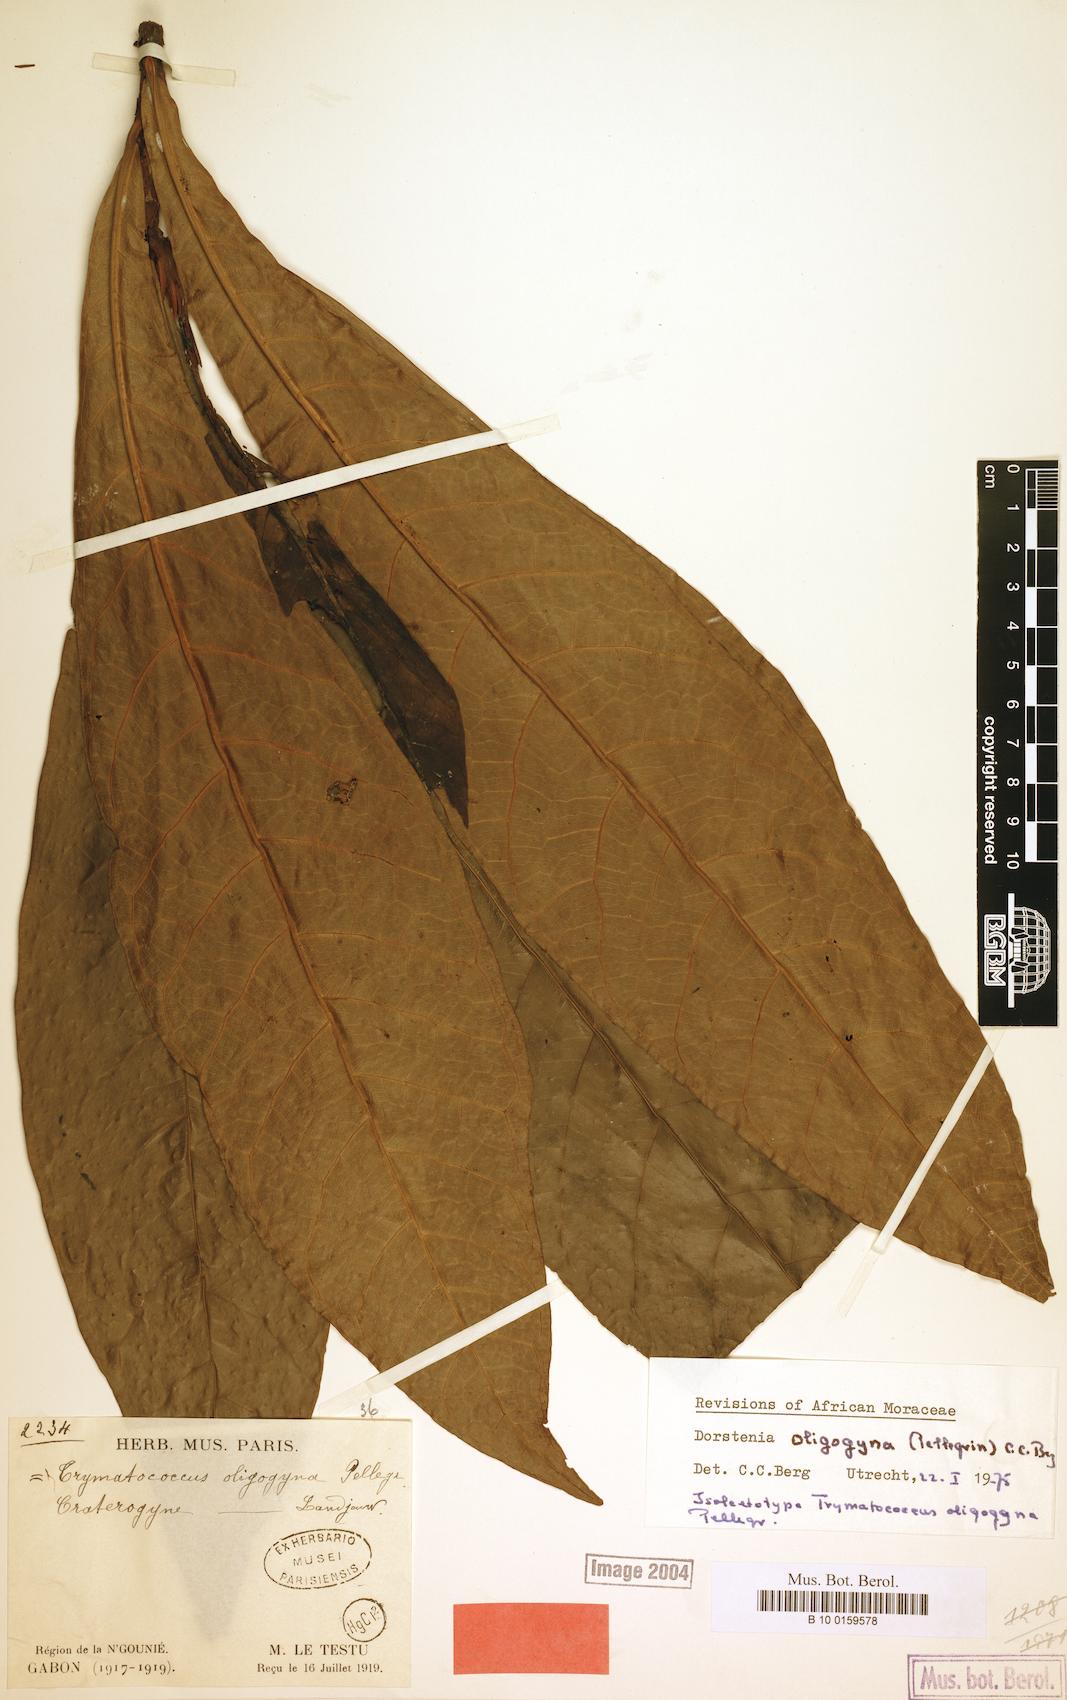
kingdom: Plantae
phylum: Tracheophyta
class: Magnoliopsida
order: Rosales
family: Moraceae
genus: Dorstenia
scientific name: Dorstenia oligogyna
